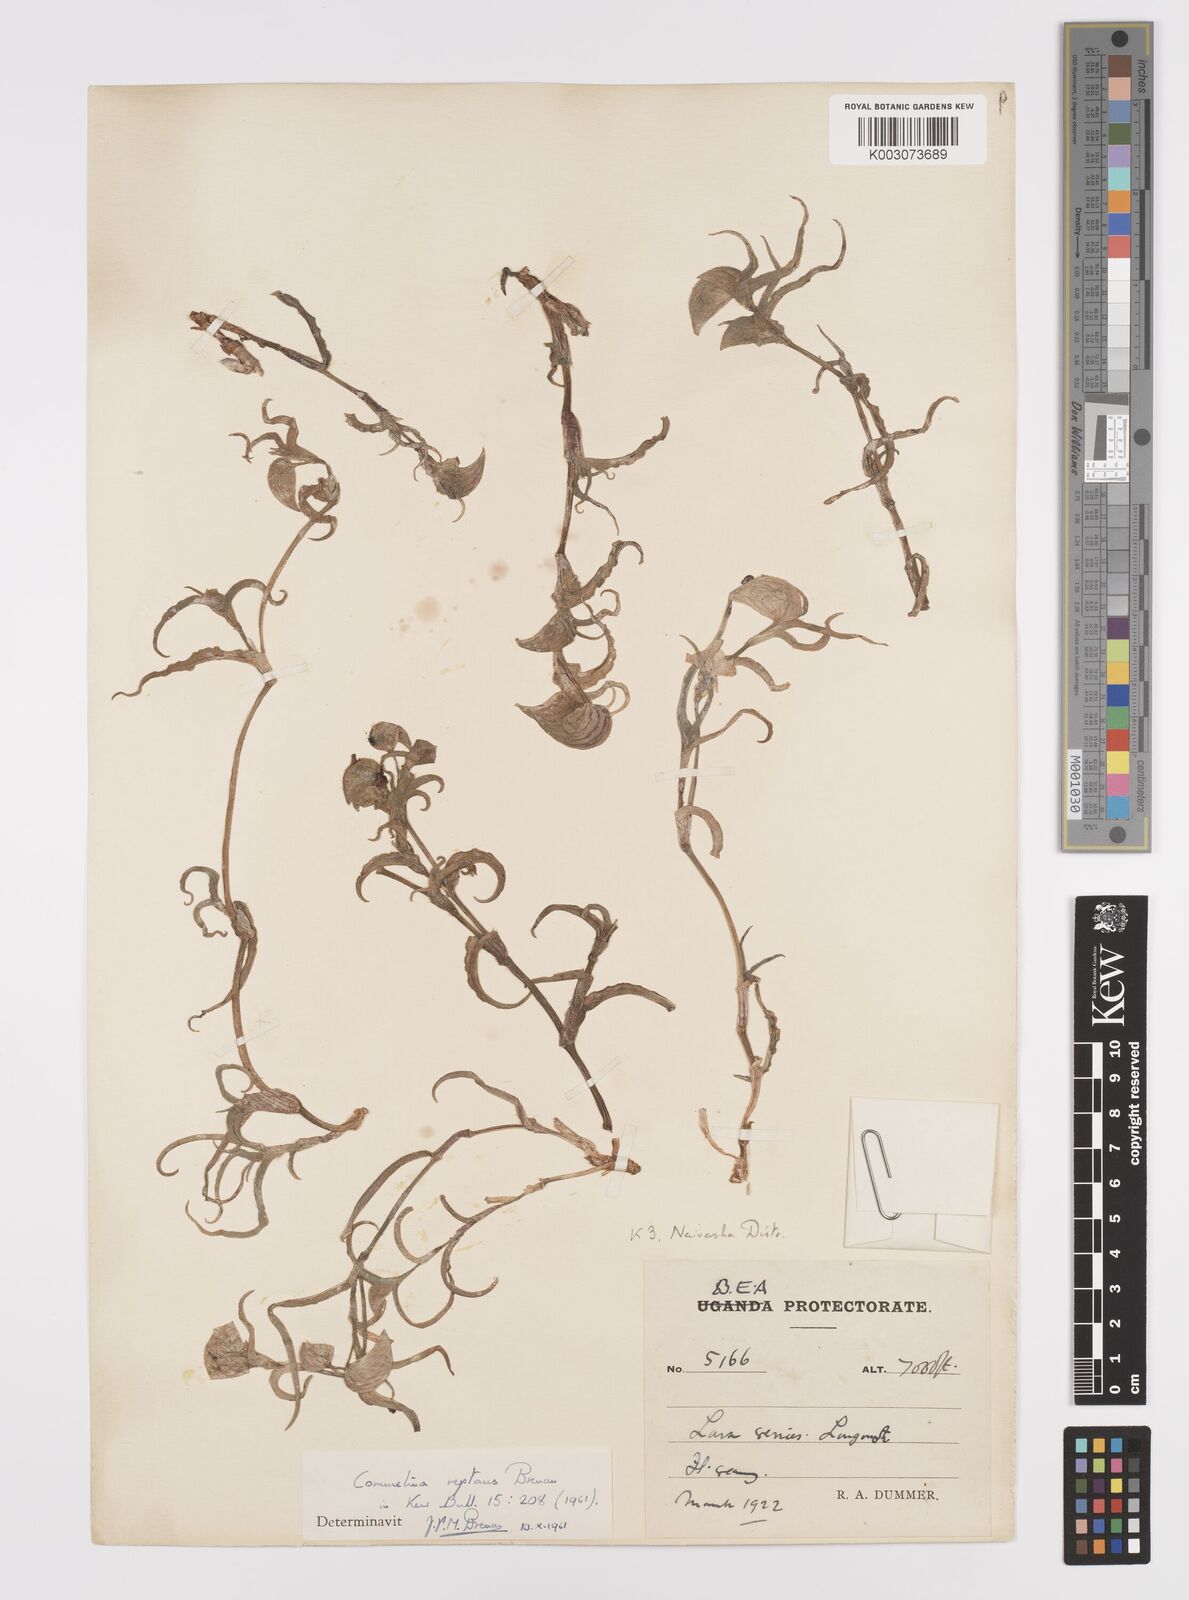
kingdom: Plantae
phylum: Tracheophyta
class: Liliopsida
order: Commelinales
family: Commelinaceae
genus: Commelina
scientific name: Commelina reptans
